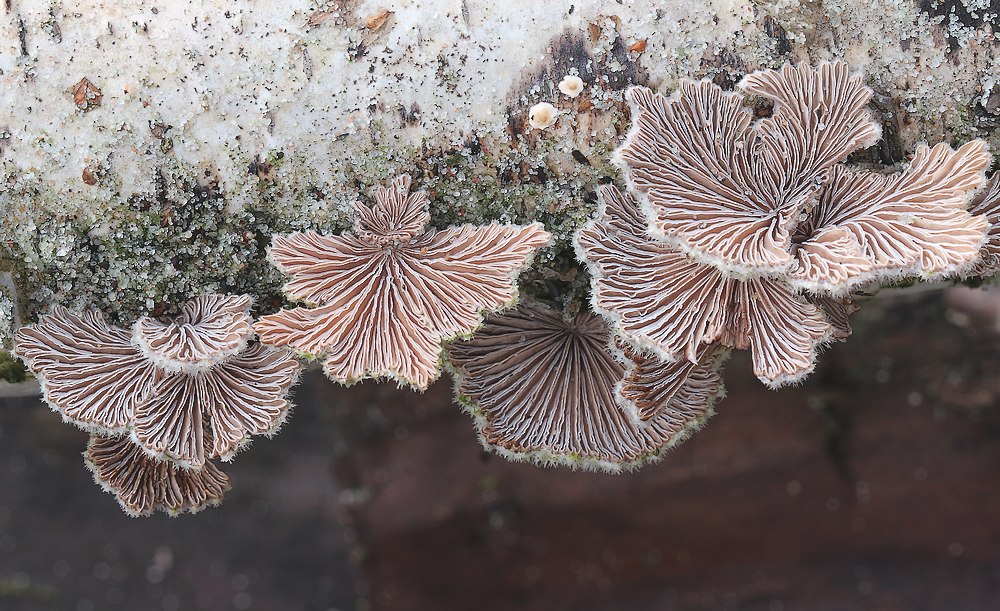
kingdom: Fungi
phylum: Basidiomycota
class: Agaricomycetes
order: Agaricales
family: Schizophyllaceae
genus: Schizophyllum
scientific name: Schizophyllum commune
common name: kløvblad
